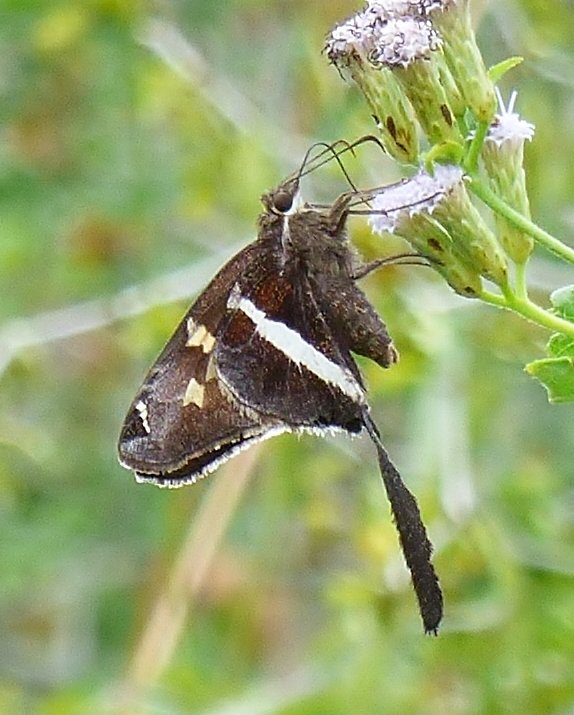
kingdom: Animalia
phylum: Arthropoda
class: Insecta
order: Lepidoptera
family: Hesperiidae
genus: Chioides
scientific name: Chioides catillus
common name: White-striped Longtail
